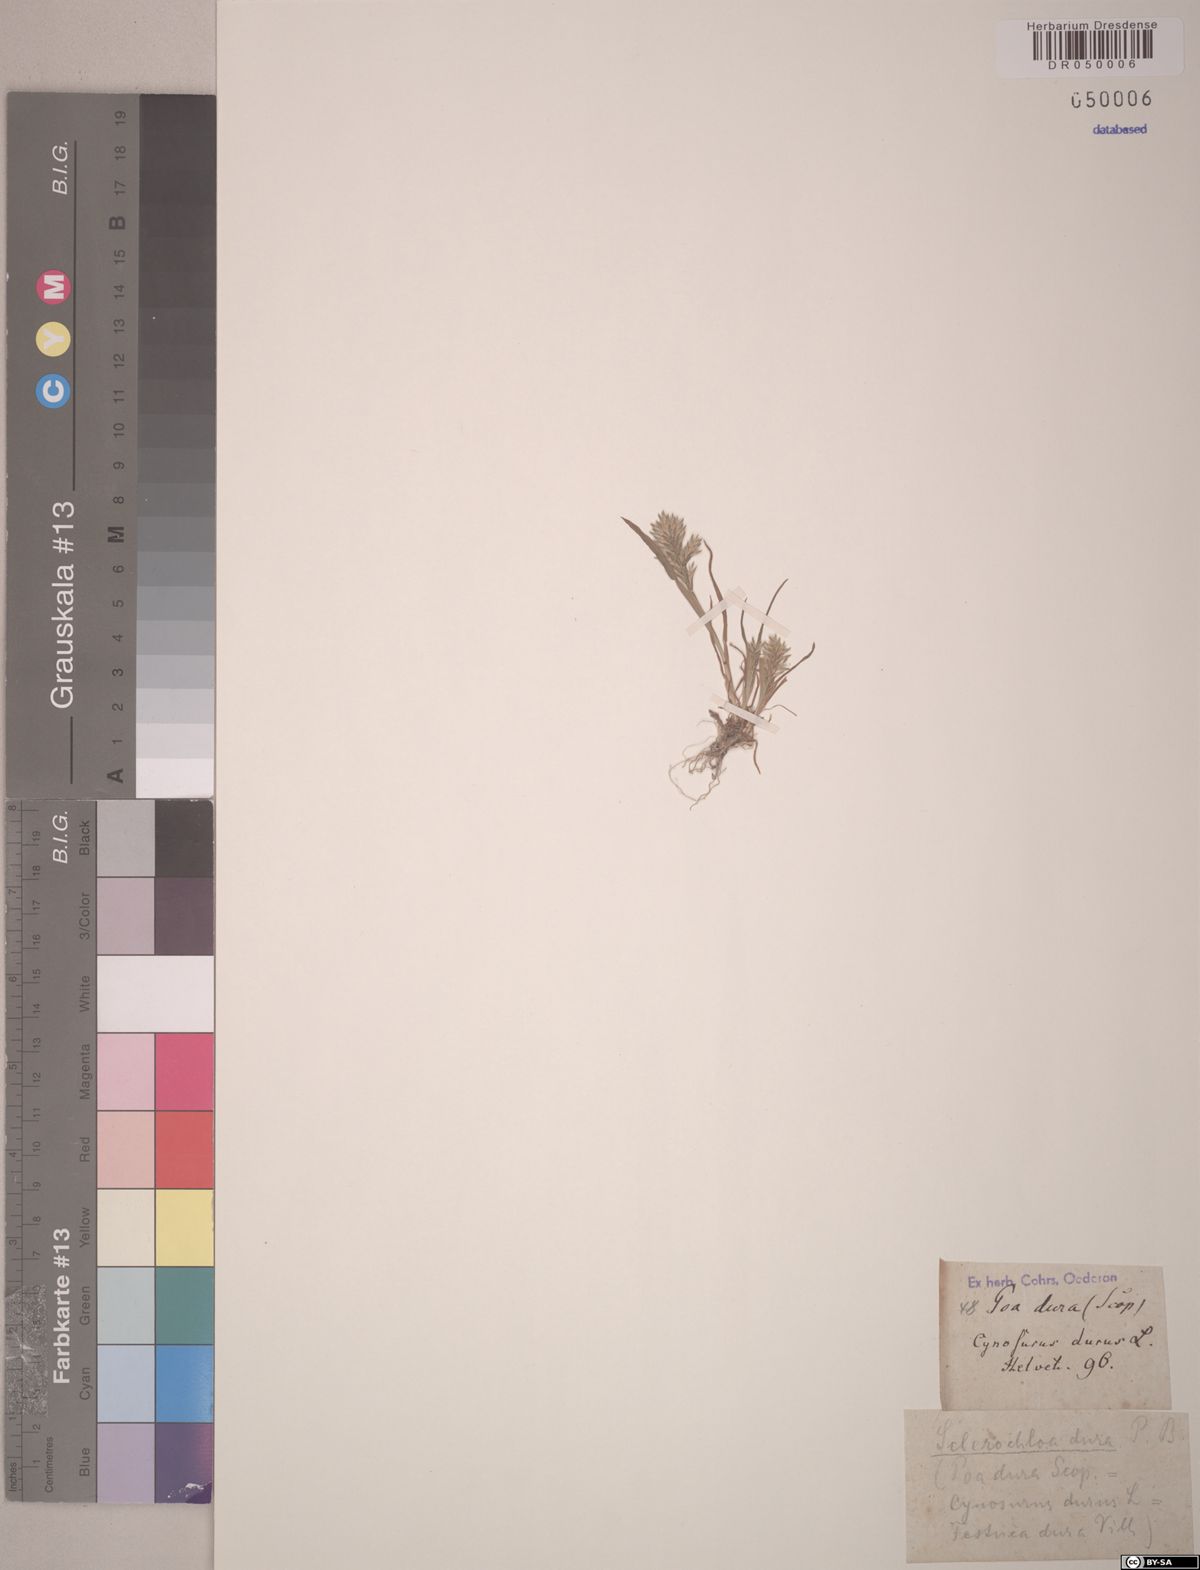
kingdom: Plantae
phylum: Tracheophyta
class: Liliopsida
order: Poales
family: Poaceae
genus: Sclerochloa
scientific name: Sclerochloa dura
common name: Common hardgrass
